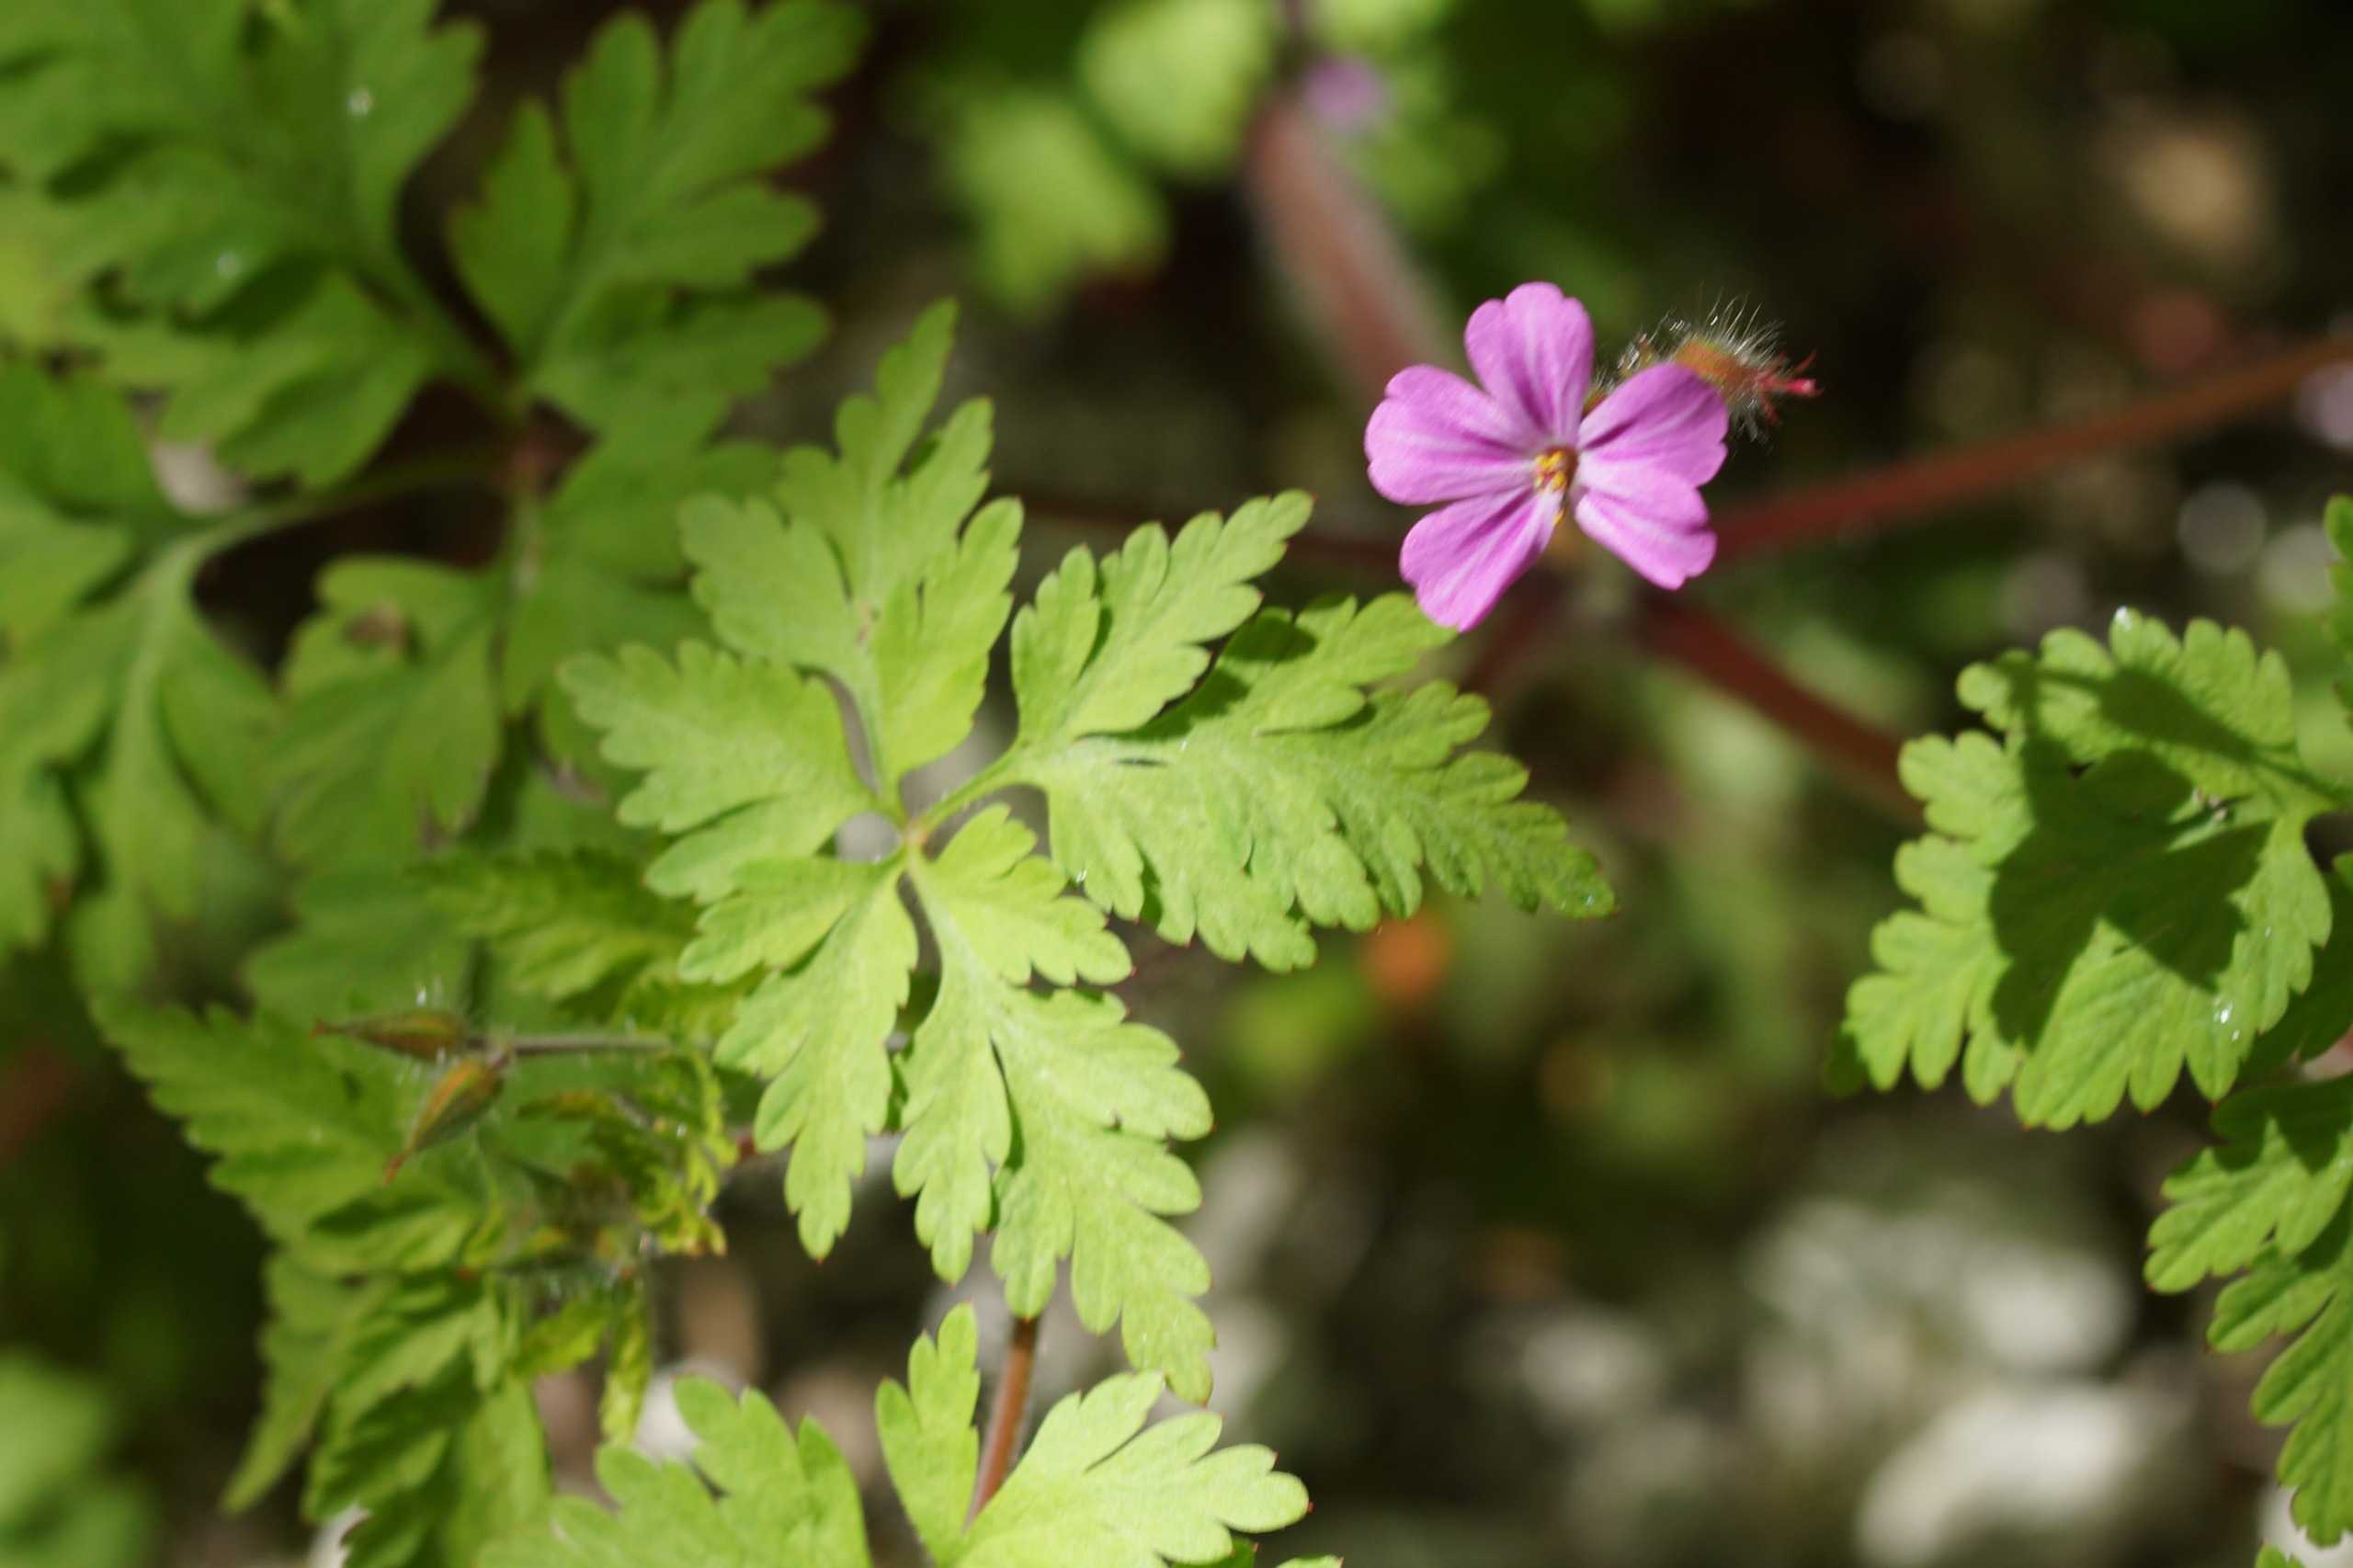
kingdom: Plantae
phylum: Tracheophyta
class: Magnoliopsida
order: Geraniales
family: Geraniaceae
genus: Geranium
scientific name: Geranium robertianum
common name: Stinkende storkenæb
